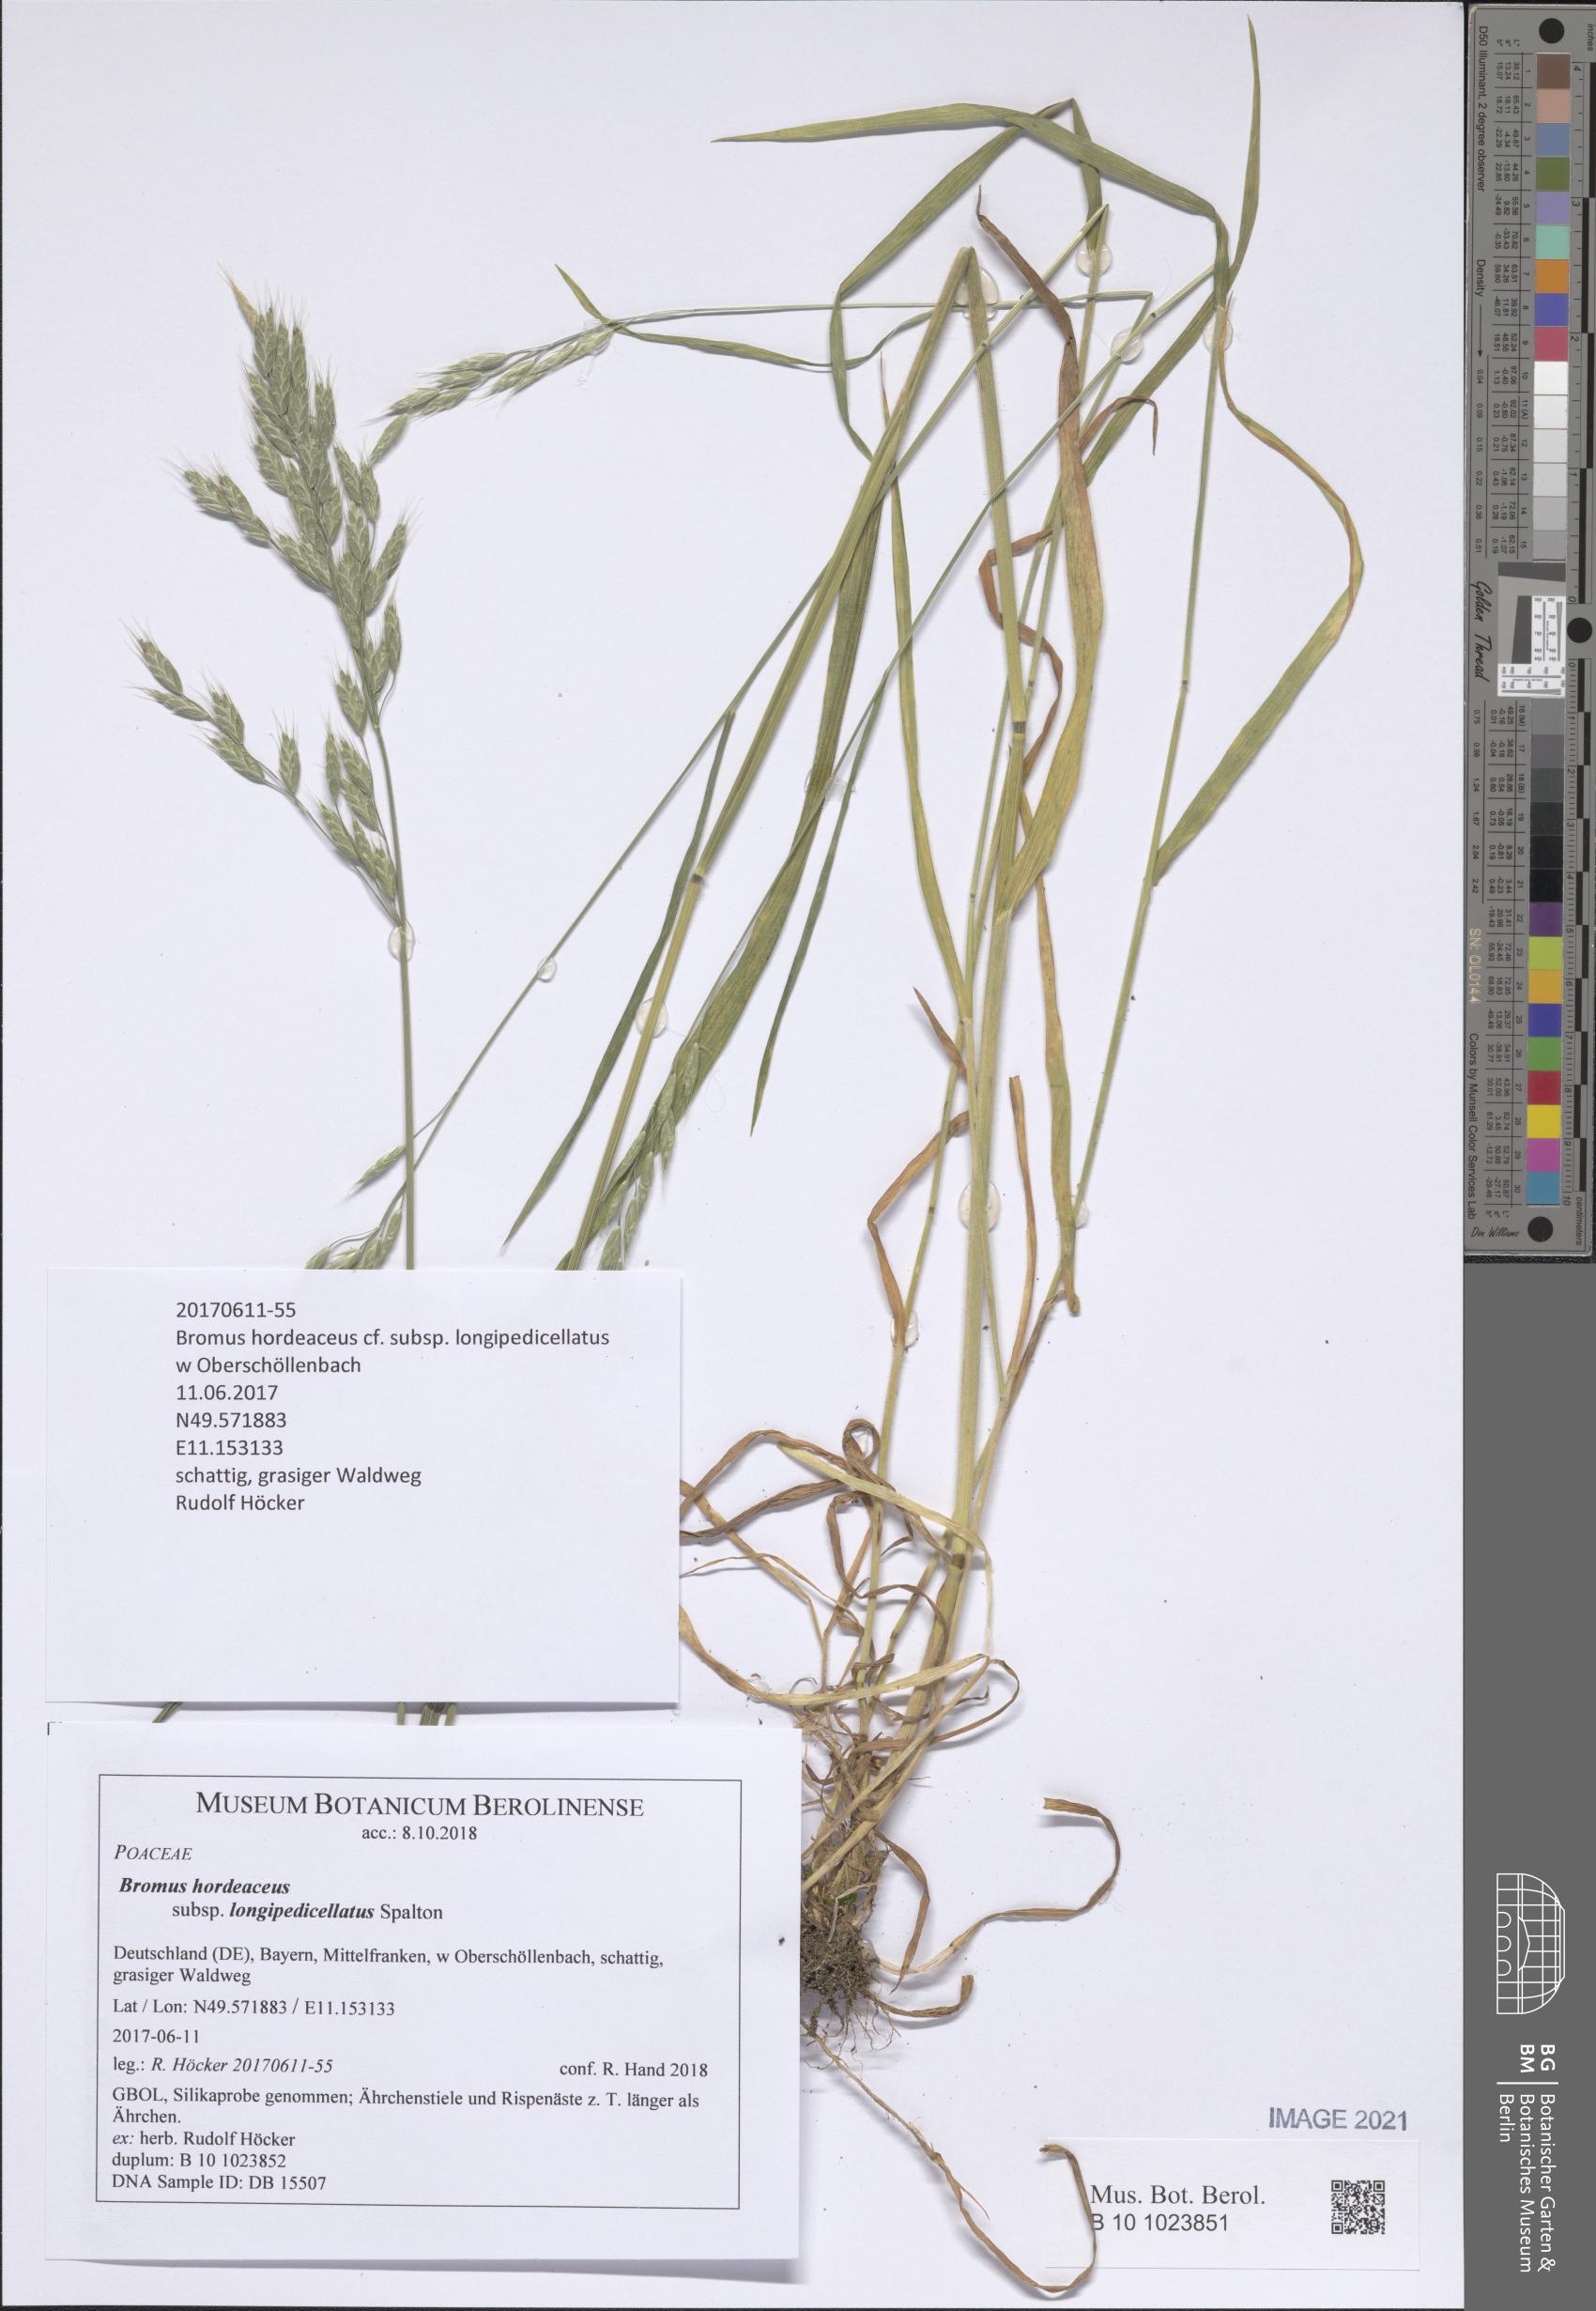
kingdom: Plantae
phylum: Tracheophyta
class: Liliopsida
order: Poales
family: Poaceae
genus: Bromus
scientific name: Bromus hordeaceus
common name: Soft brome
